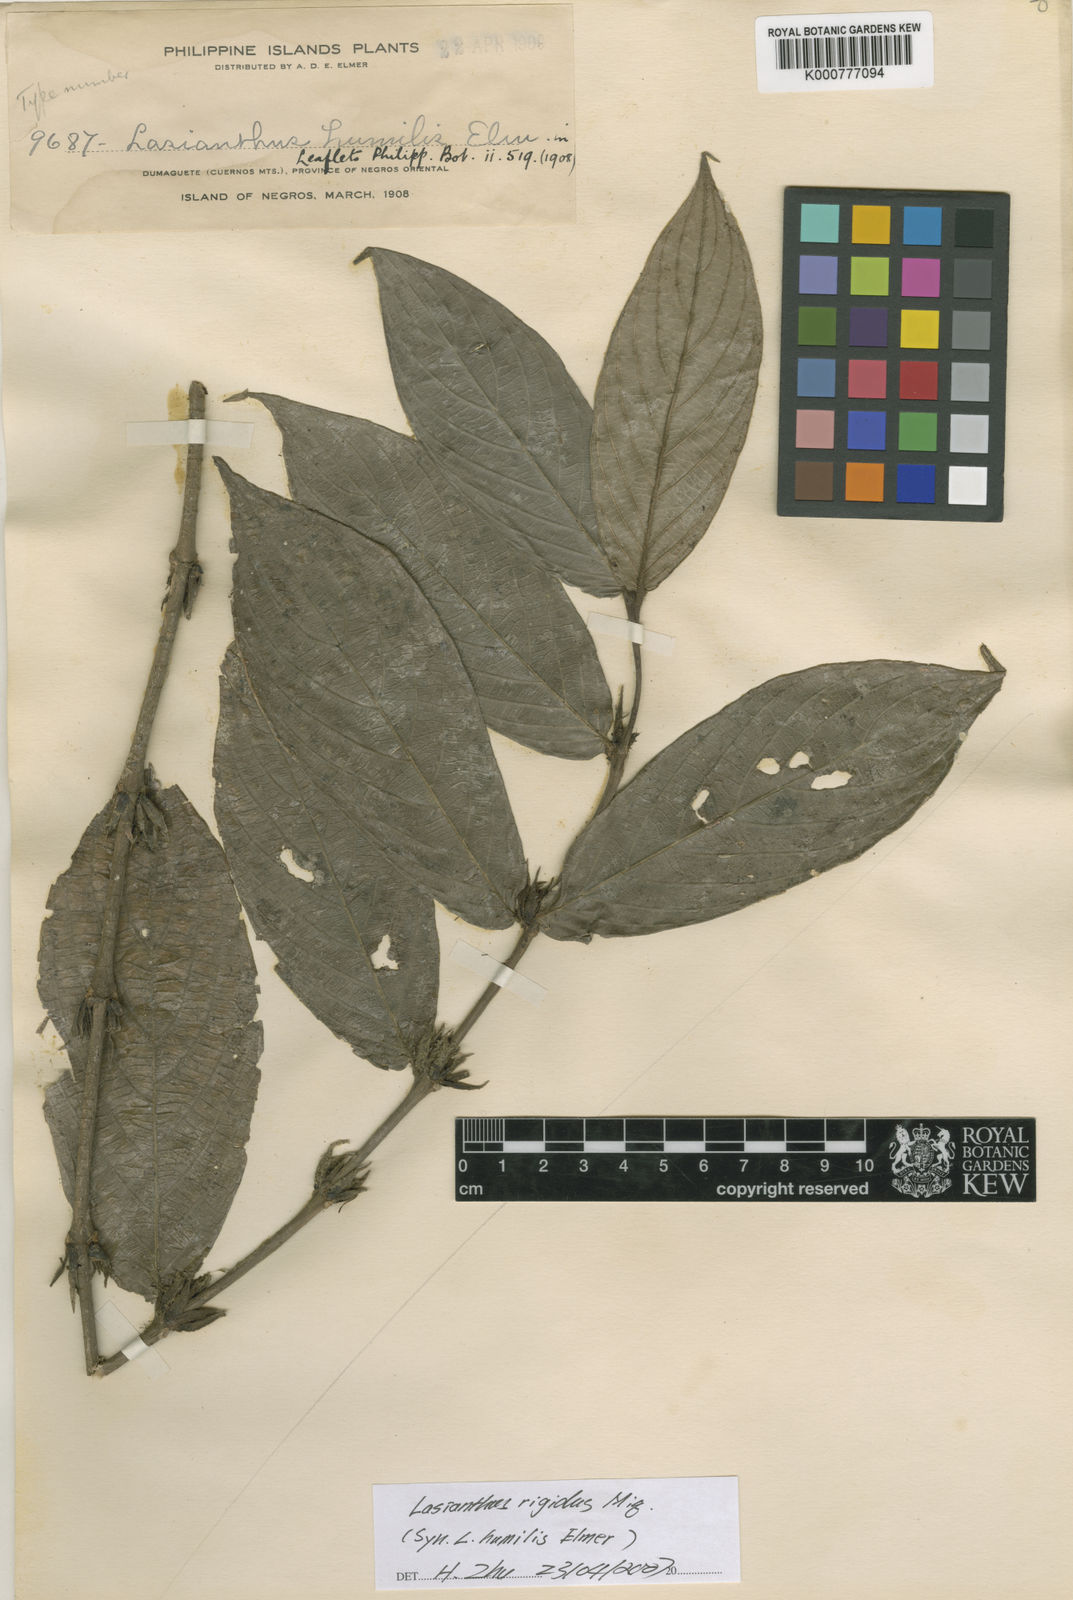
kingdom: Plantae
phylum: Tracheophyta
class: Magnoliopsida
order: Gentianales
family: Rubiaceae
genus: Lasianthus
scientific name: Lasianthus rigidus
